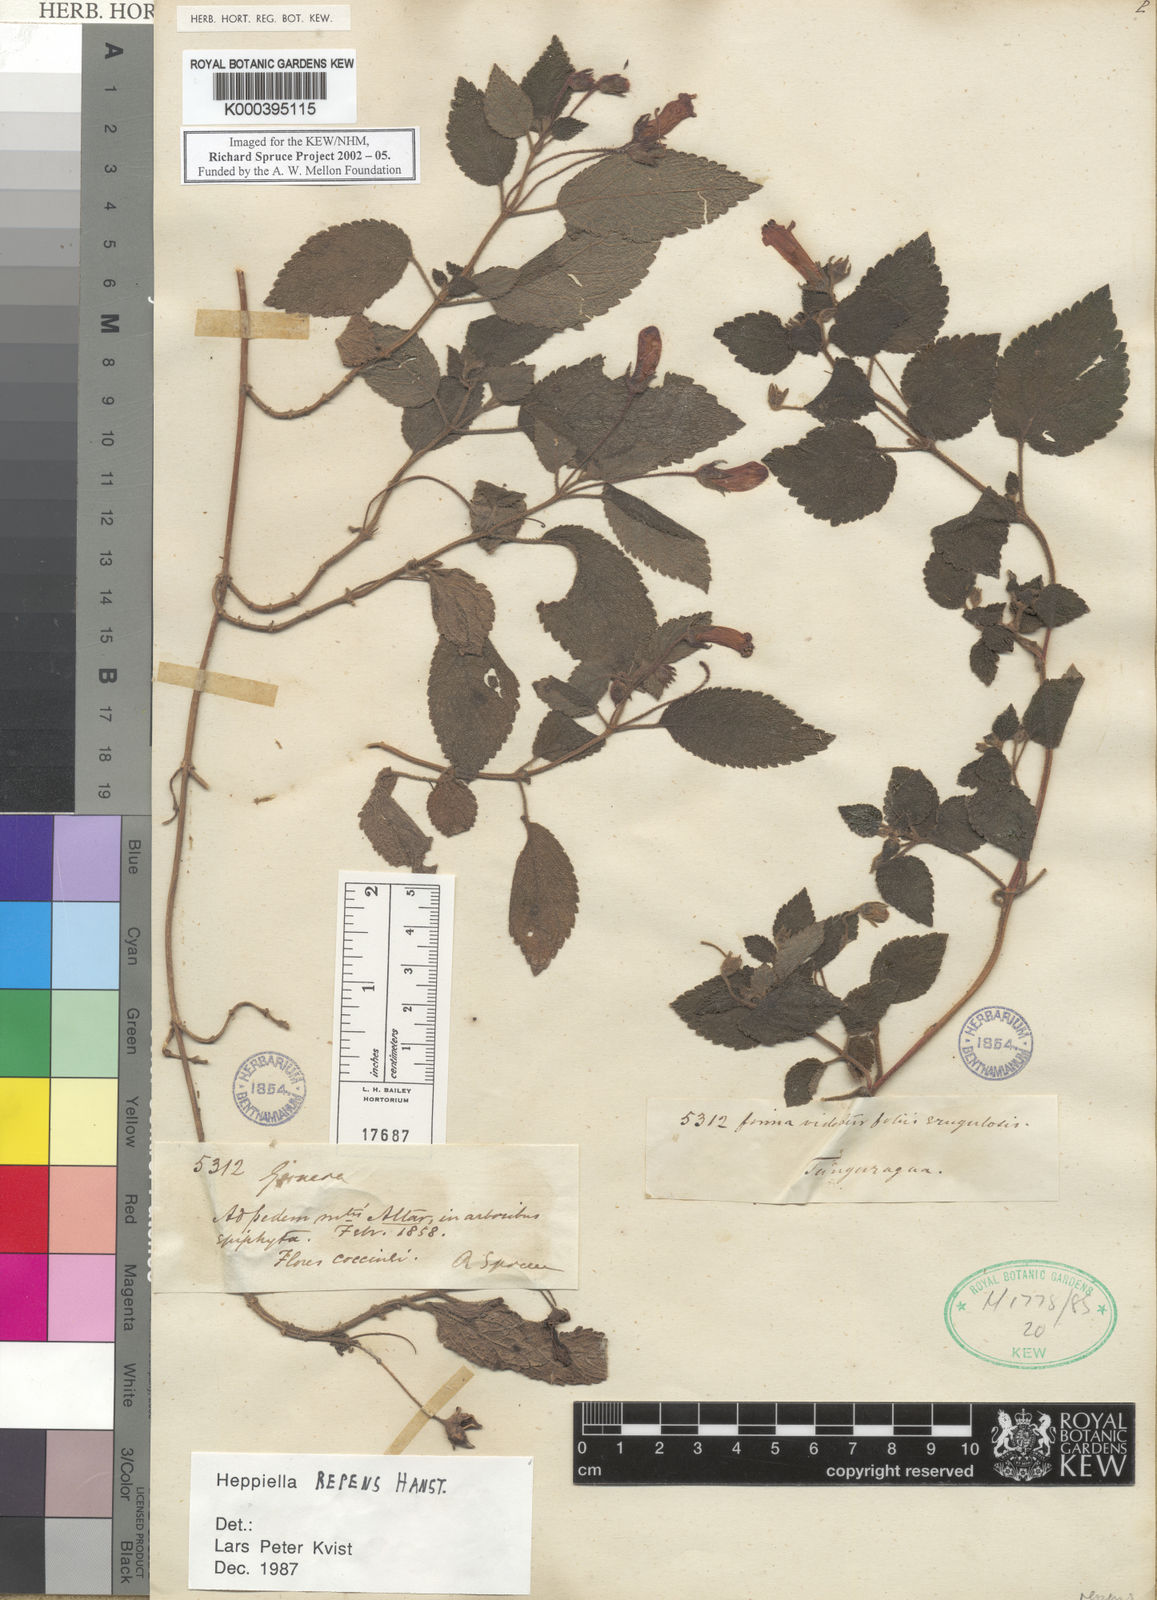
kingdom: Plantae
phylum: Tracheophyta
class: Magnoliopsida
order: Lamiales
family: Gesneriaceae
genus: Heppiella
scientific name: Heppiella repens
